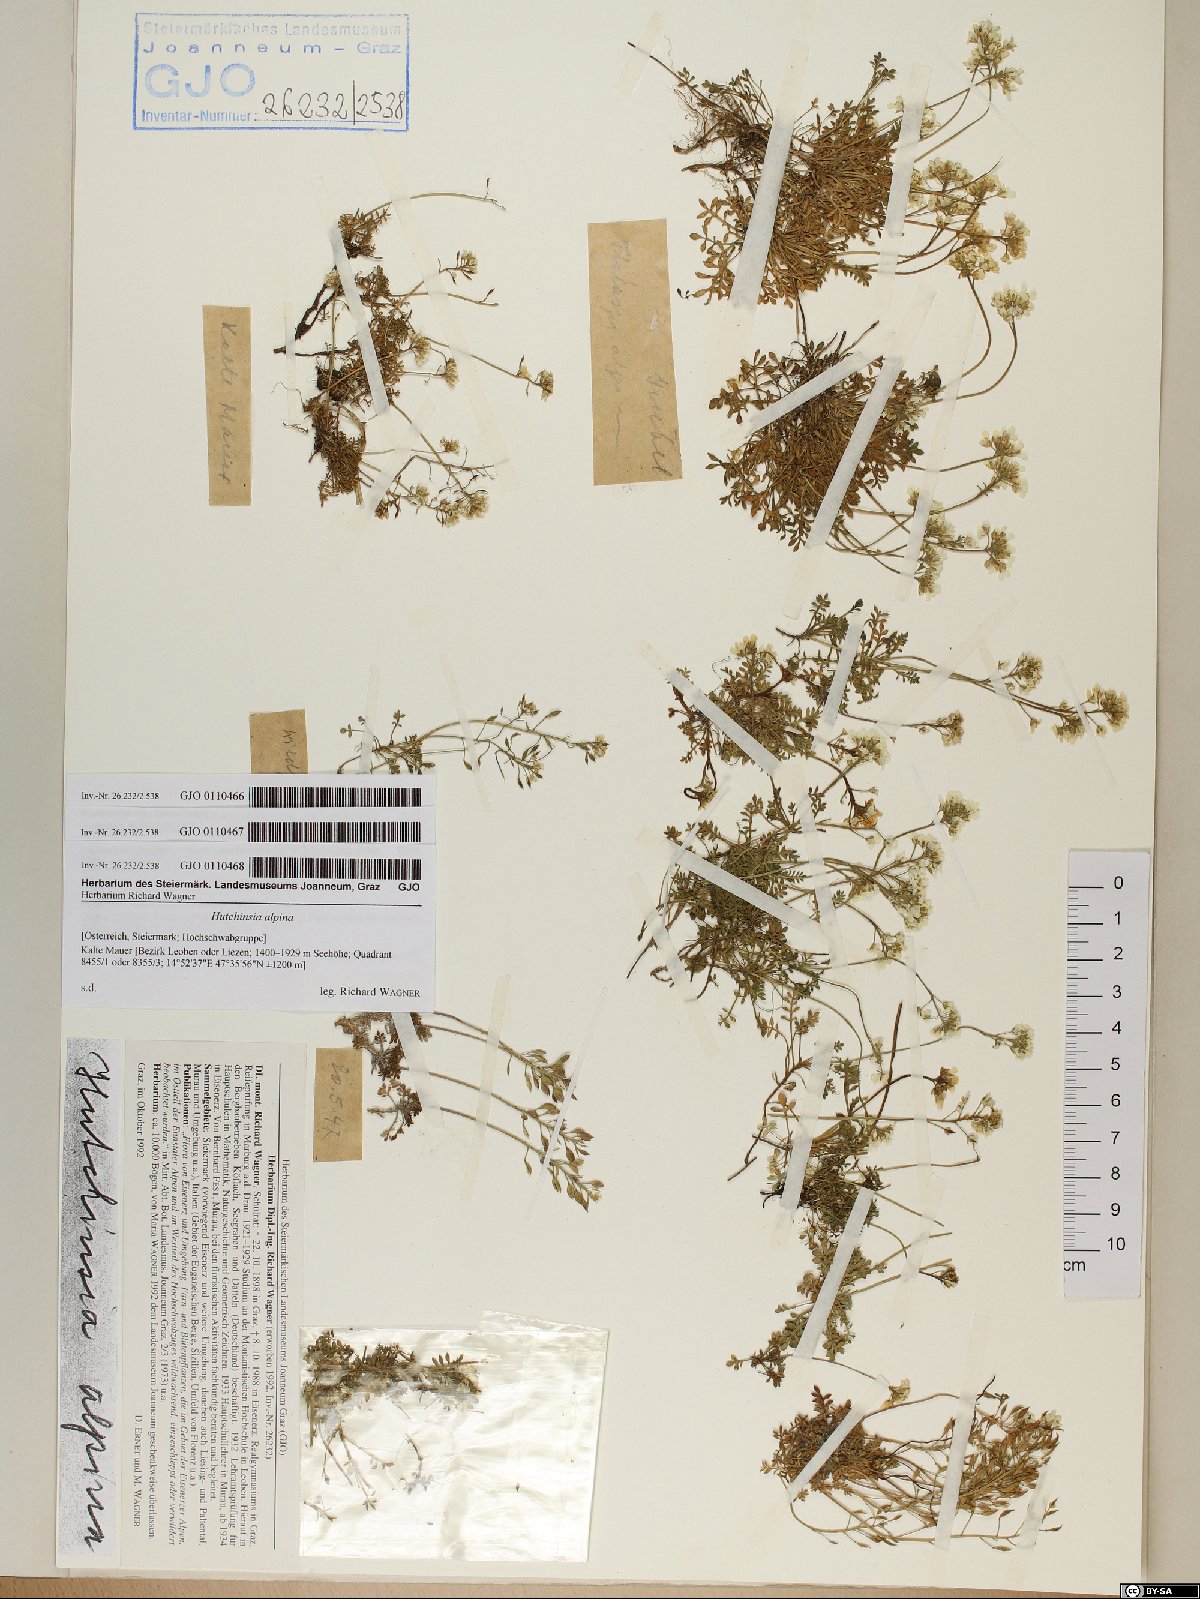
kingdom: Plantae
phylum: Tracheophyta
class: Magnoliopsida
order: Brassicales
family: Brassicaceae
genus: Hornungia
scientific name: Hornungia alpina
